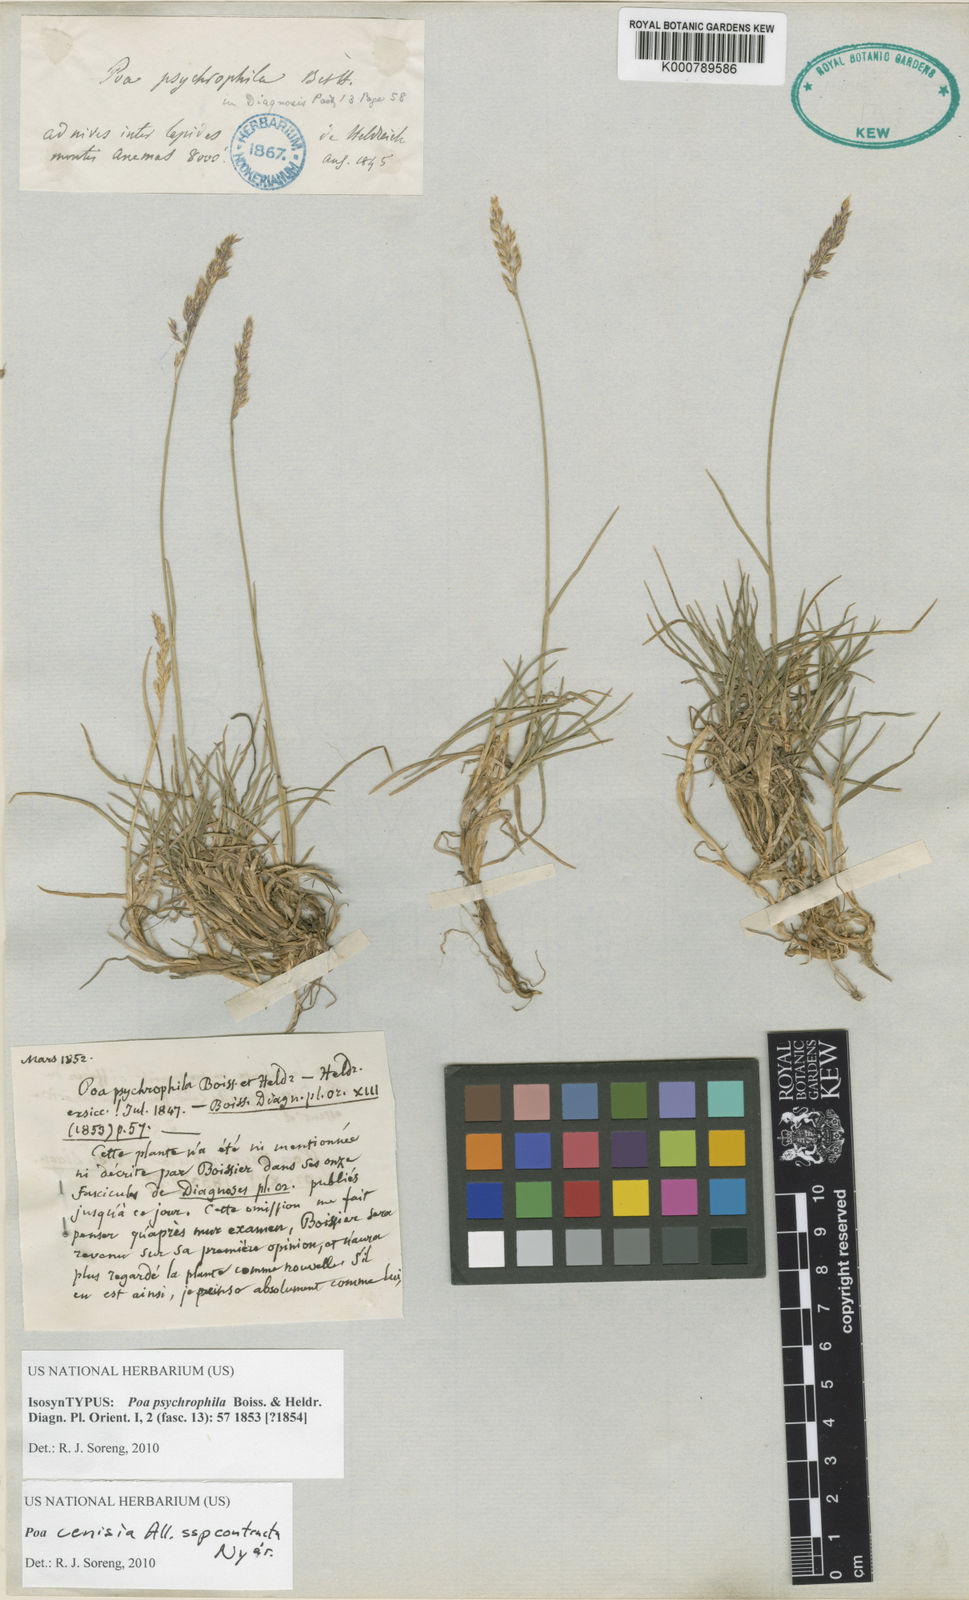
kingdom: Plantae
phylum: Tracheophyta
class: Liliopsida
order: Poales
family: Poaceae
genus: Poa
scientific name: Poa cenisia
